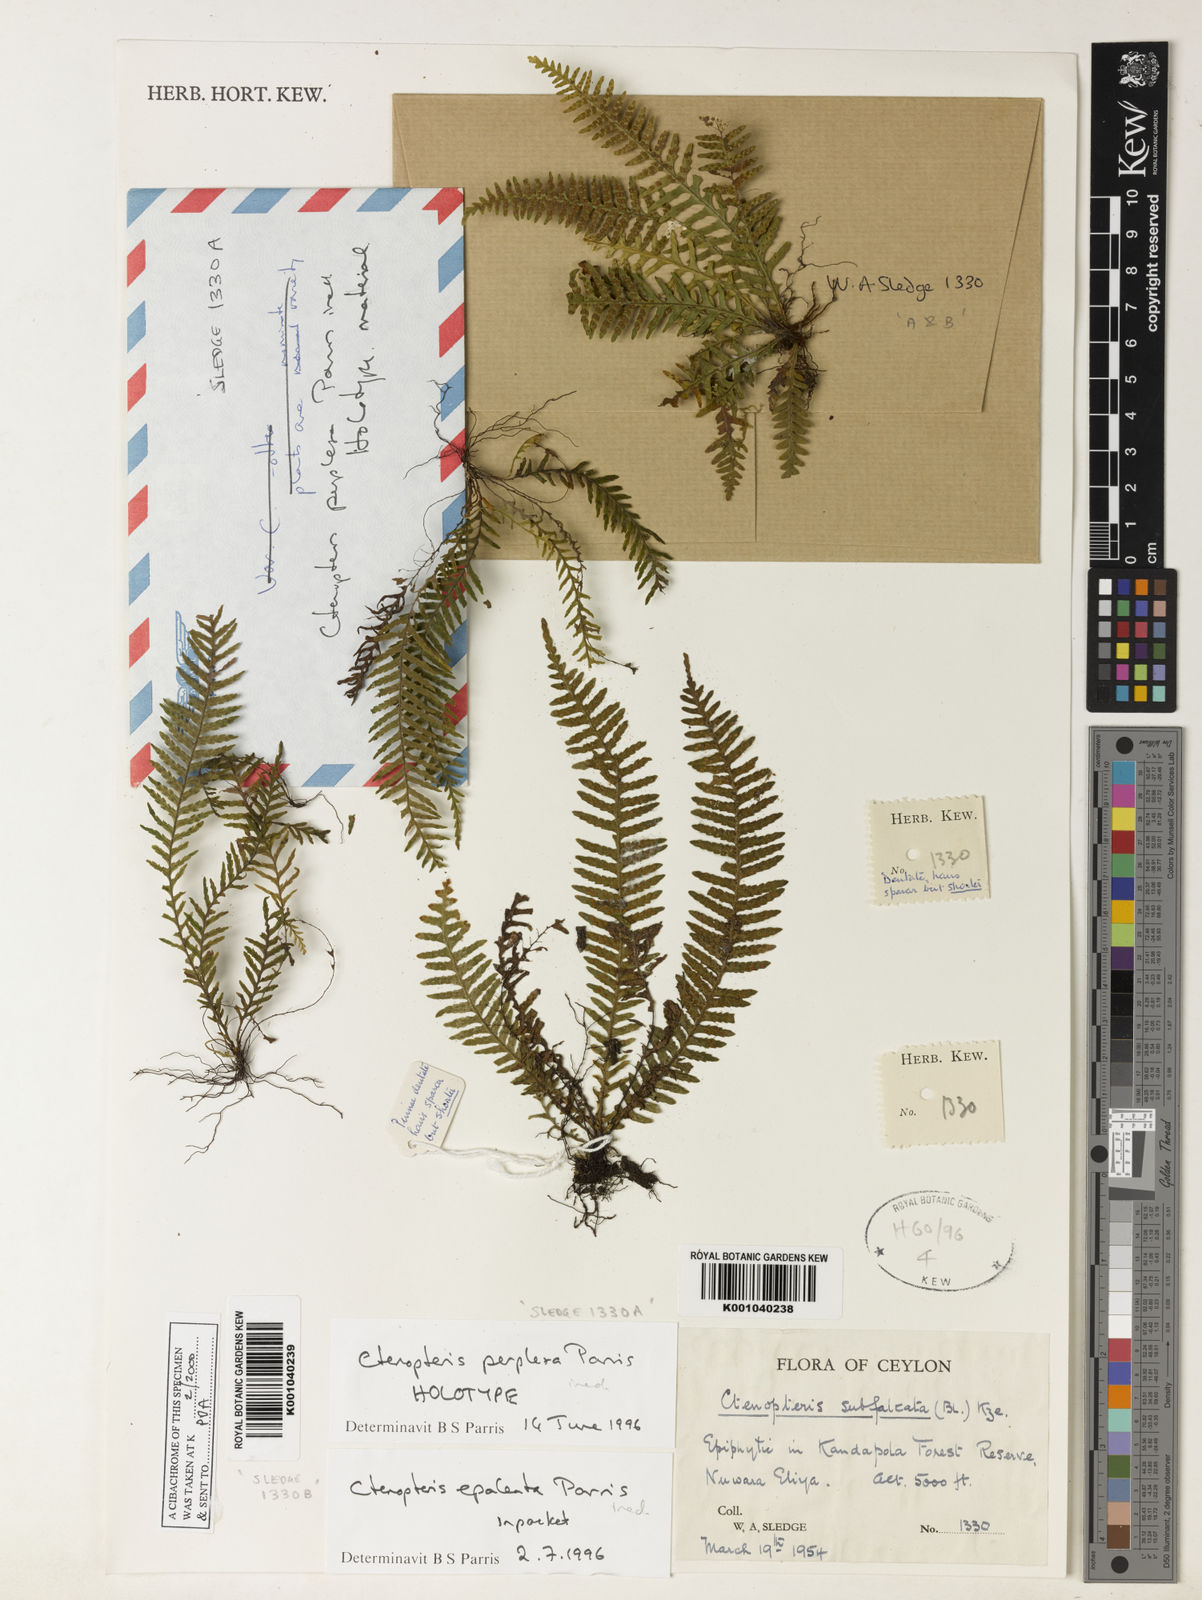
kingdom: Plantae
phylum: Tracheophyta
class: Polypodiopsida
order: Polypodiales
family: Polypodiaceae
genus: Tomophyllum
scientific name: Tomophyllum perplexum
